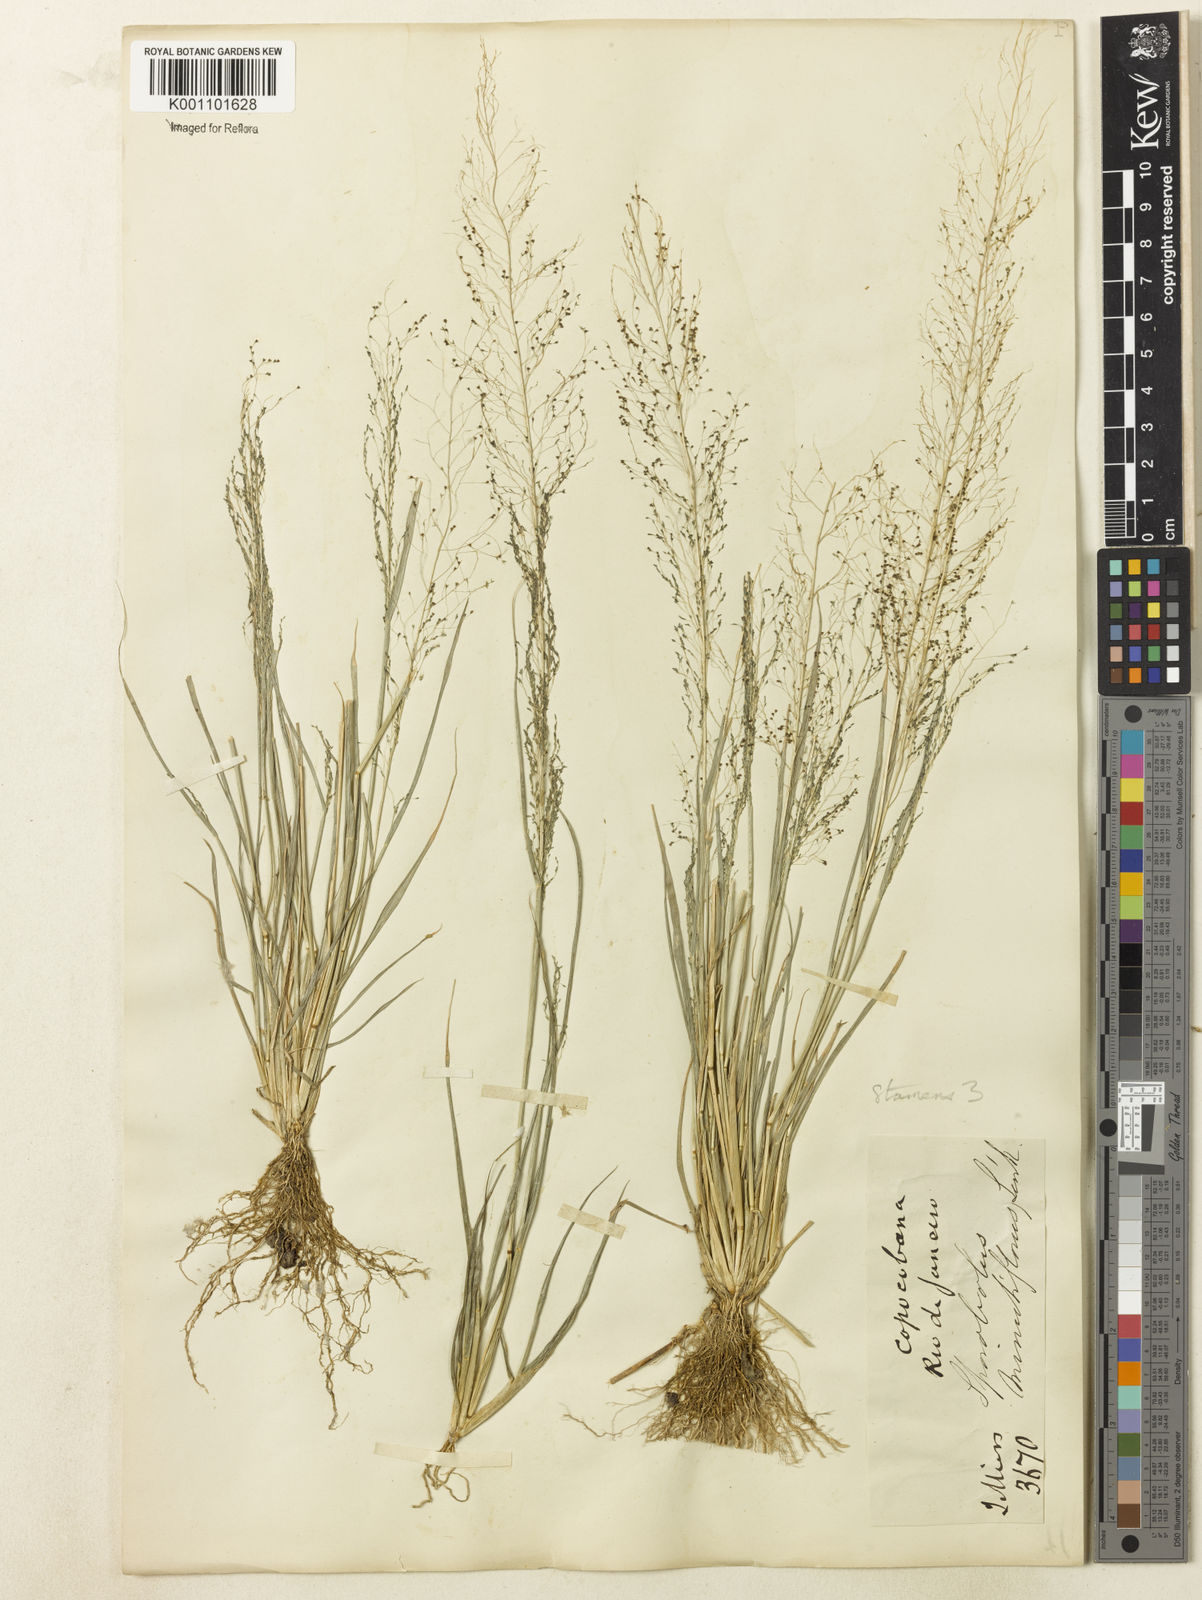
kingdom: Plantae
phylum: Tracheophyta
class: Liliopsida
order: Poales
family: Poaceae
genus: Sporobolus
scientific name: Sporobolus tenuissimus
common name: Tropical dropseed
